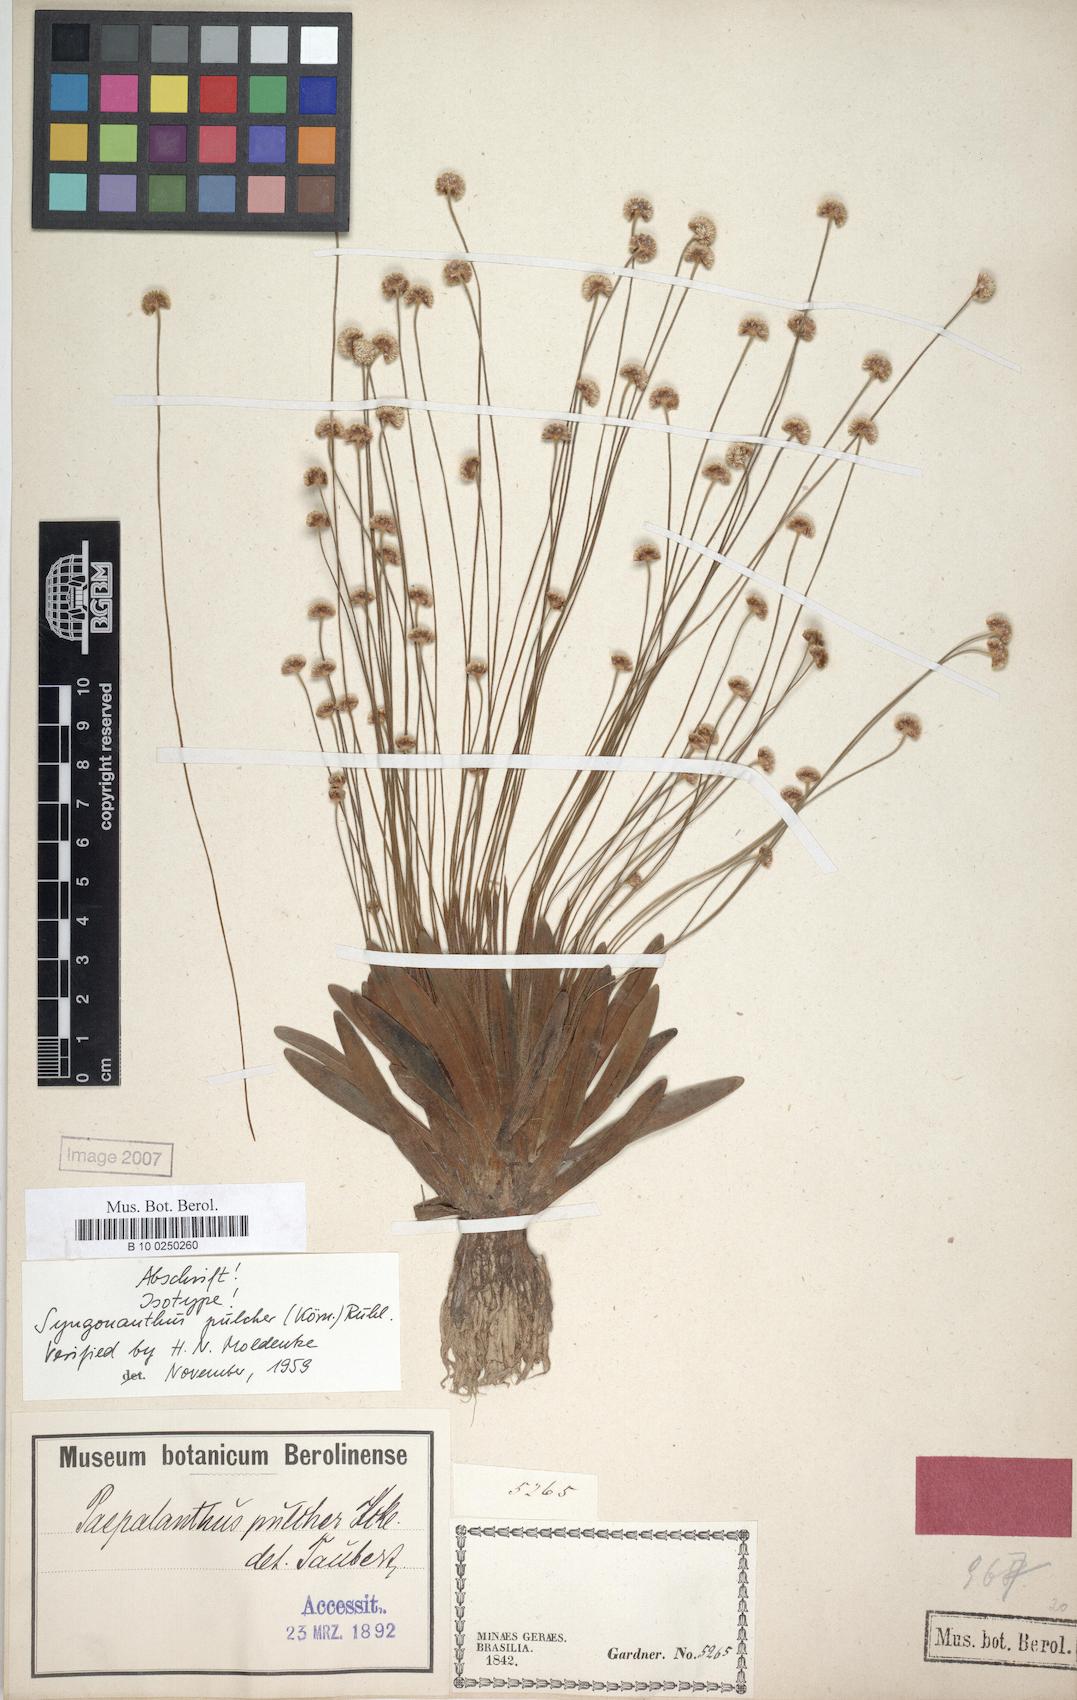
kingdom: Plantae
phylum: Tracheophyta
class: Liliopsida
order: Poales
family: Eriocaulaceae
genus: Syngonanthus
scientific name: Syngonanthus pulcher
